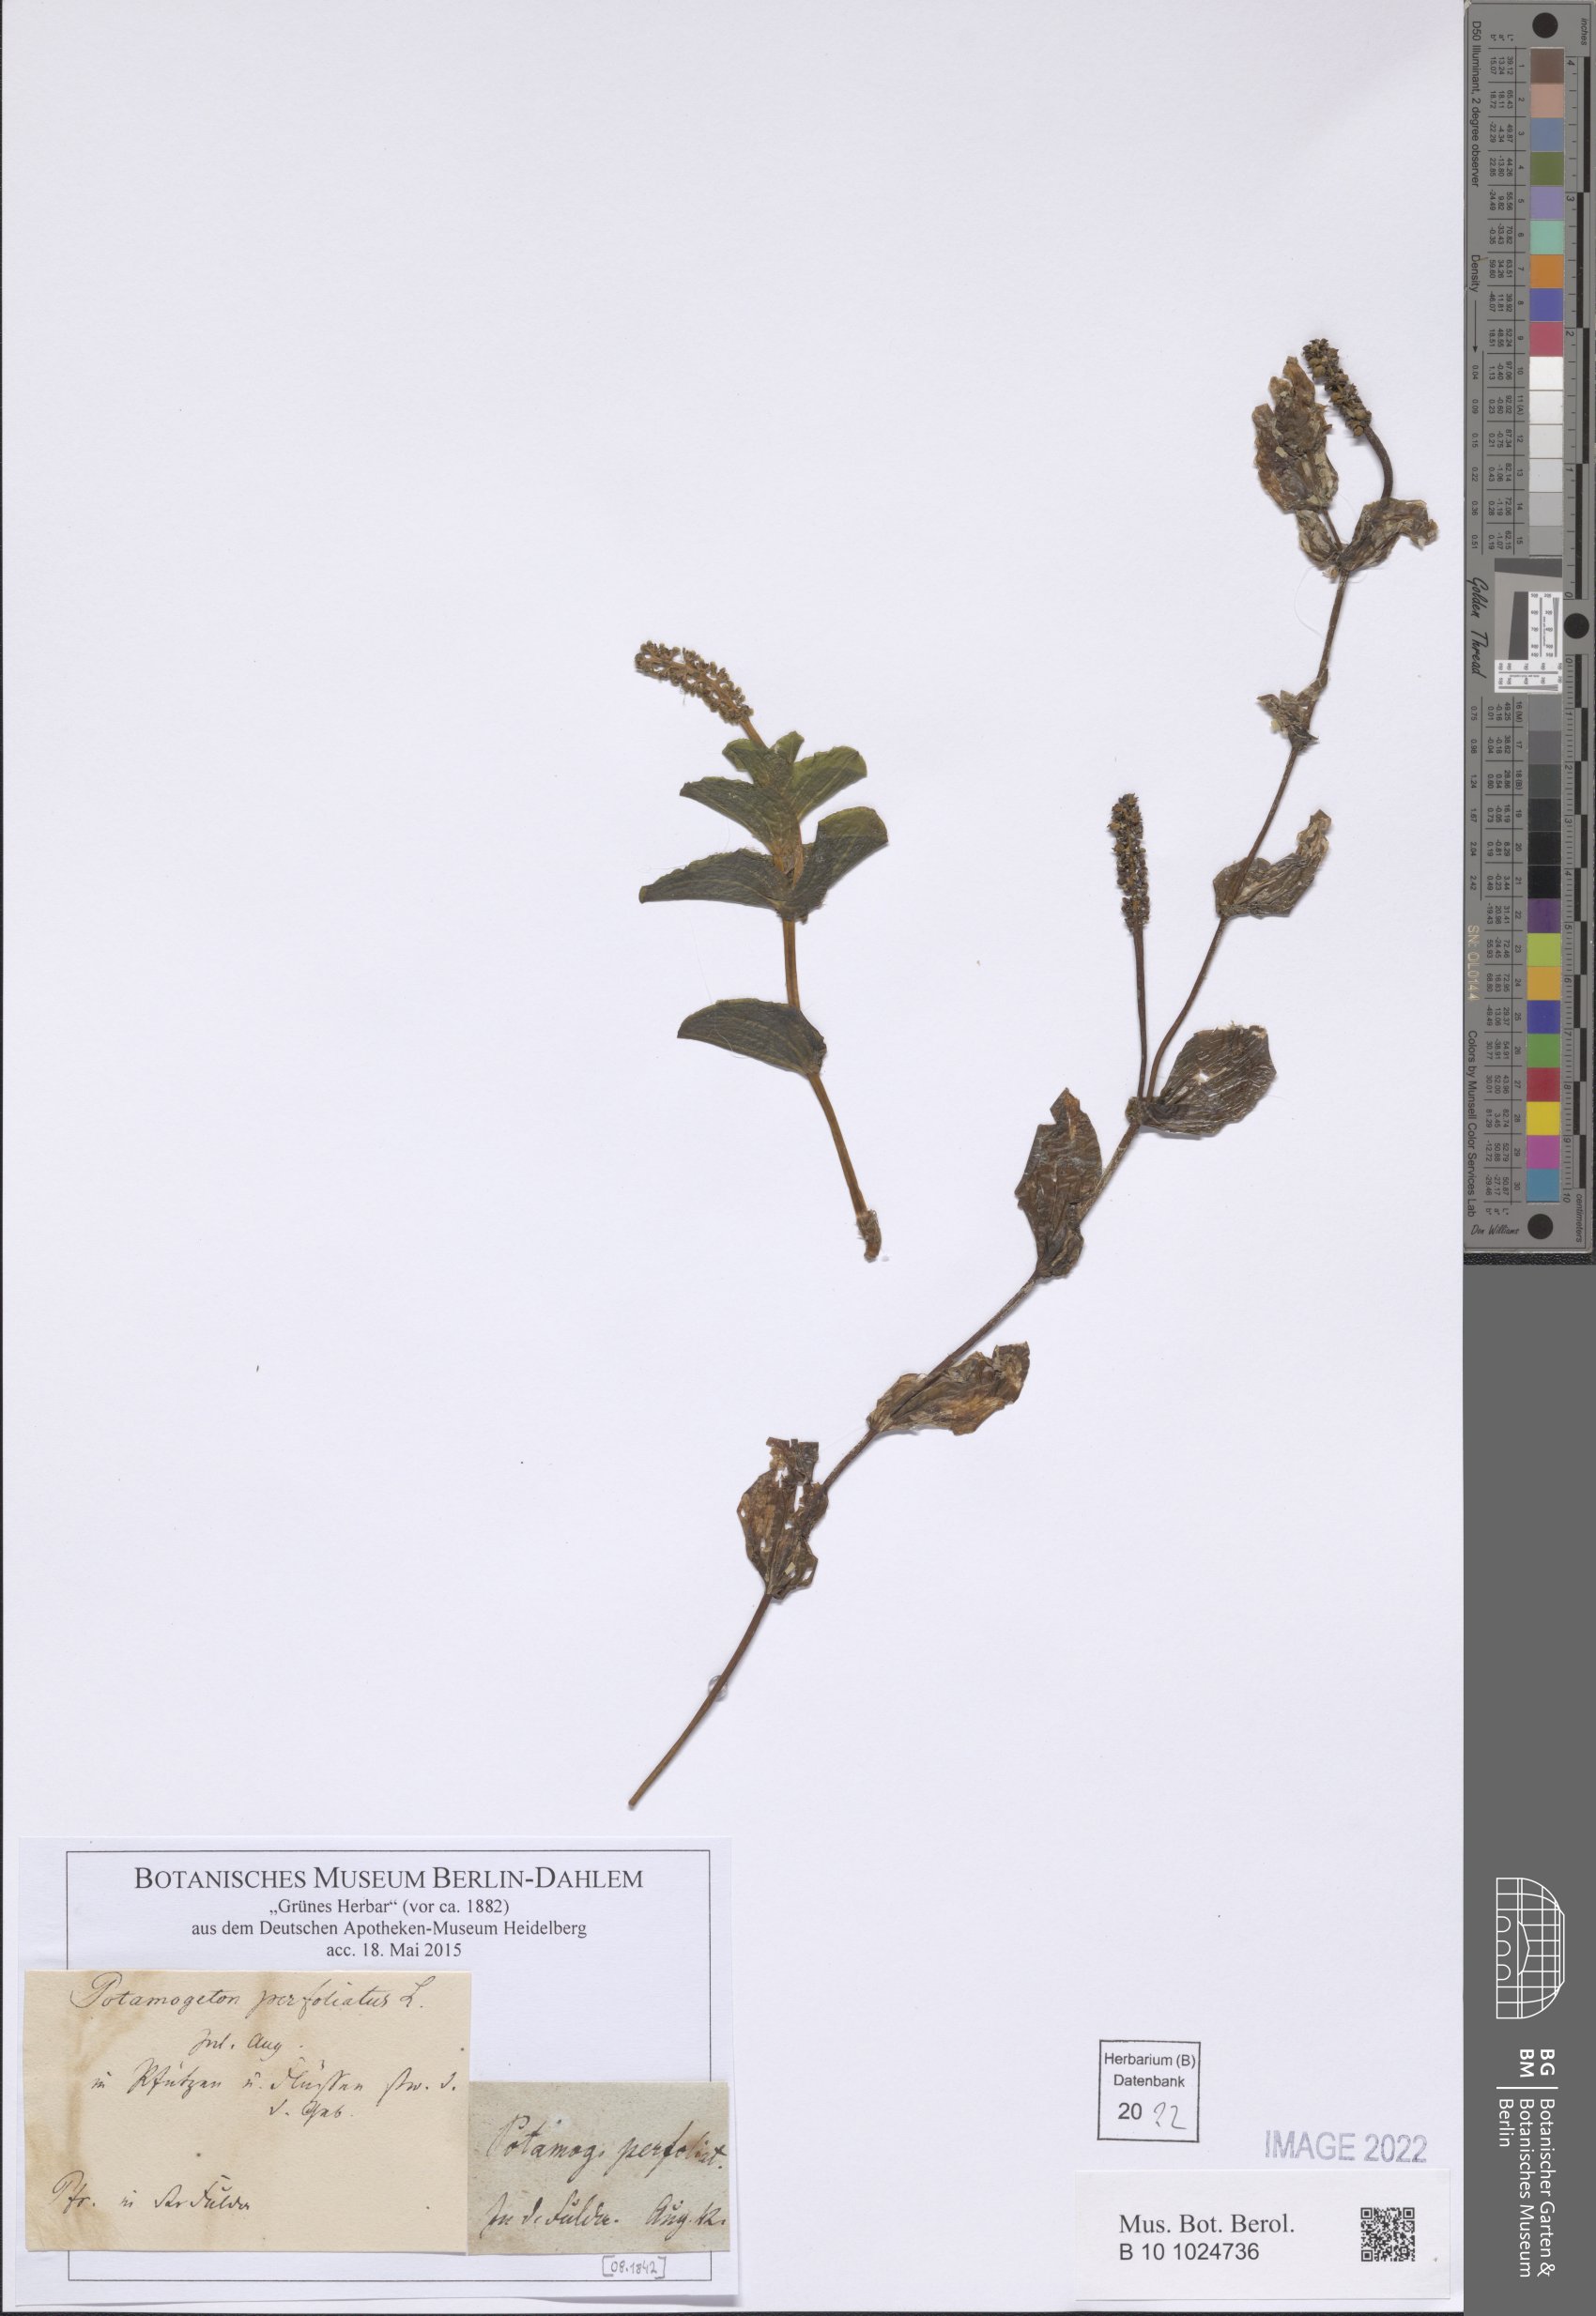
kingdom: Plantae
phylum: Tracheophyta
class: Liliopsida
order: Alismatales
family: Potamogetonaceae
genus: Potamogeton
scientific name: Potamogeton perfoliatus
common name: Perfoliate pondweed
